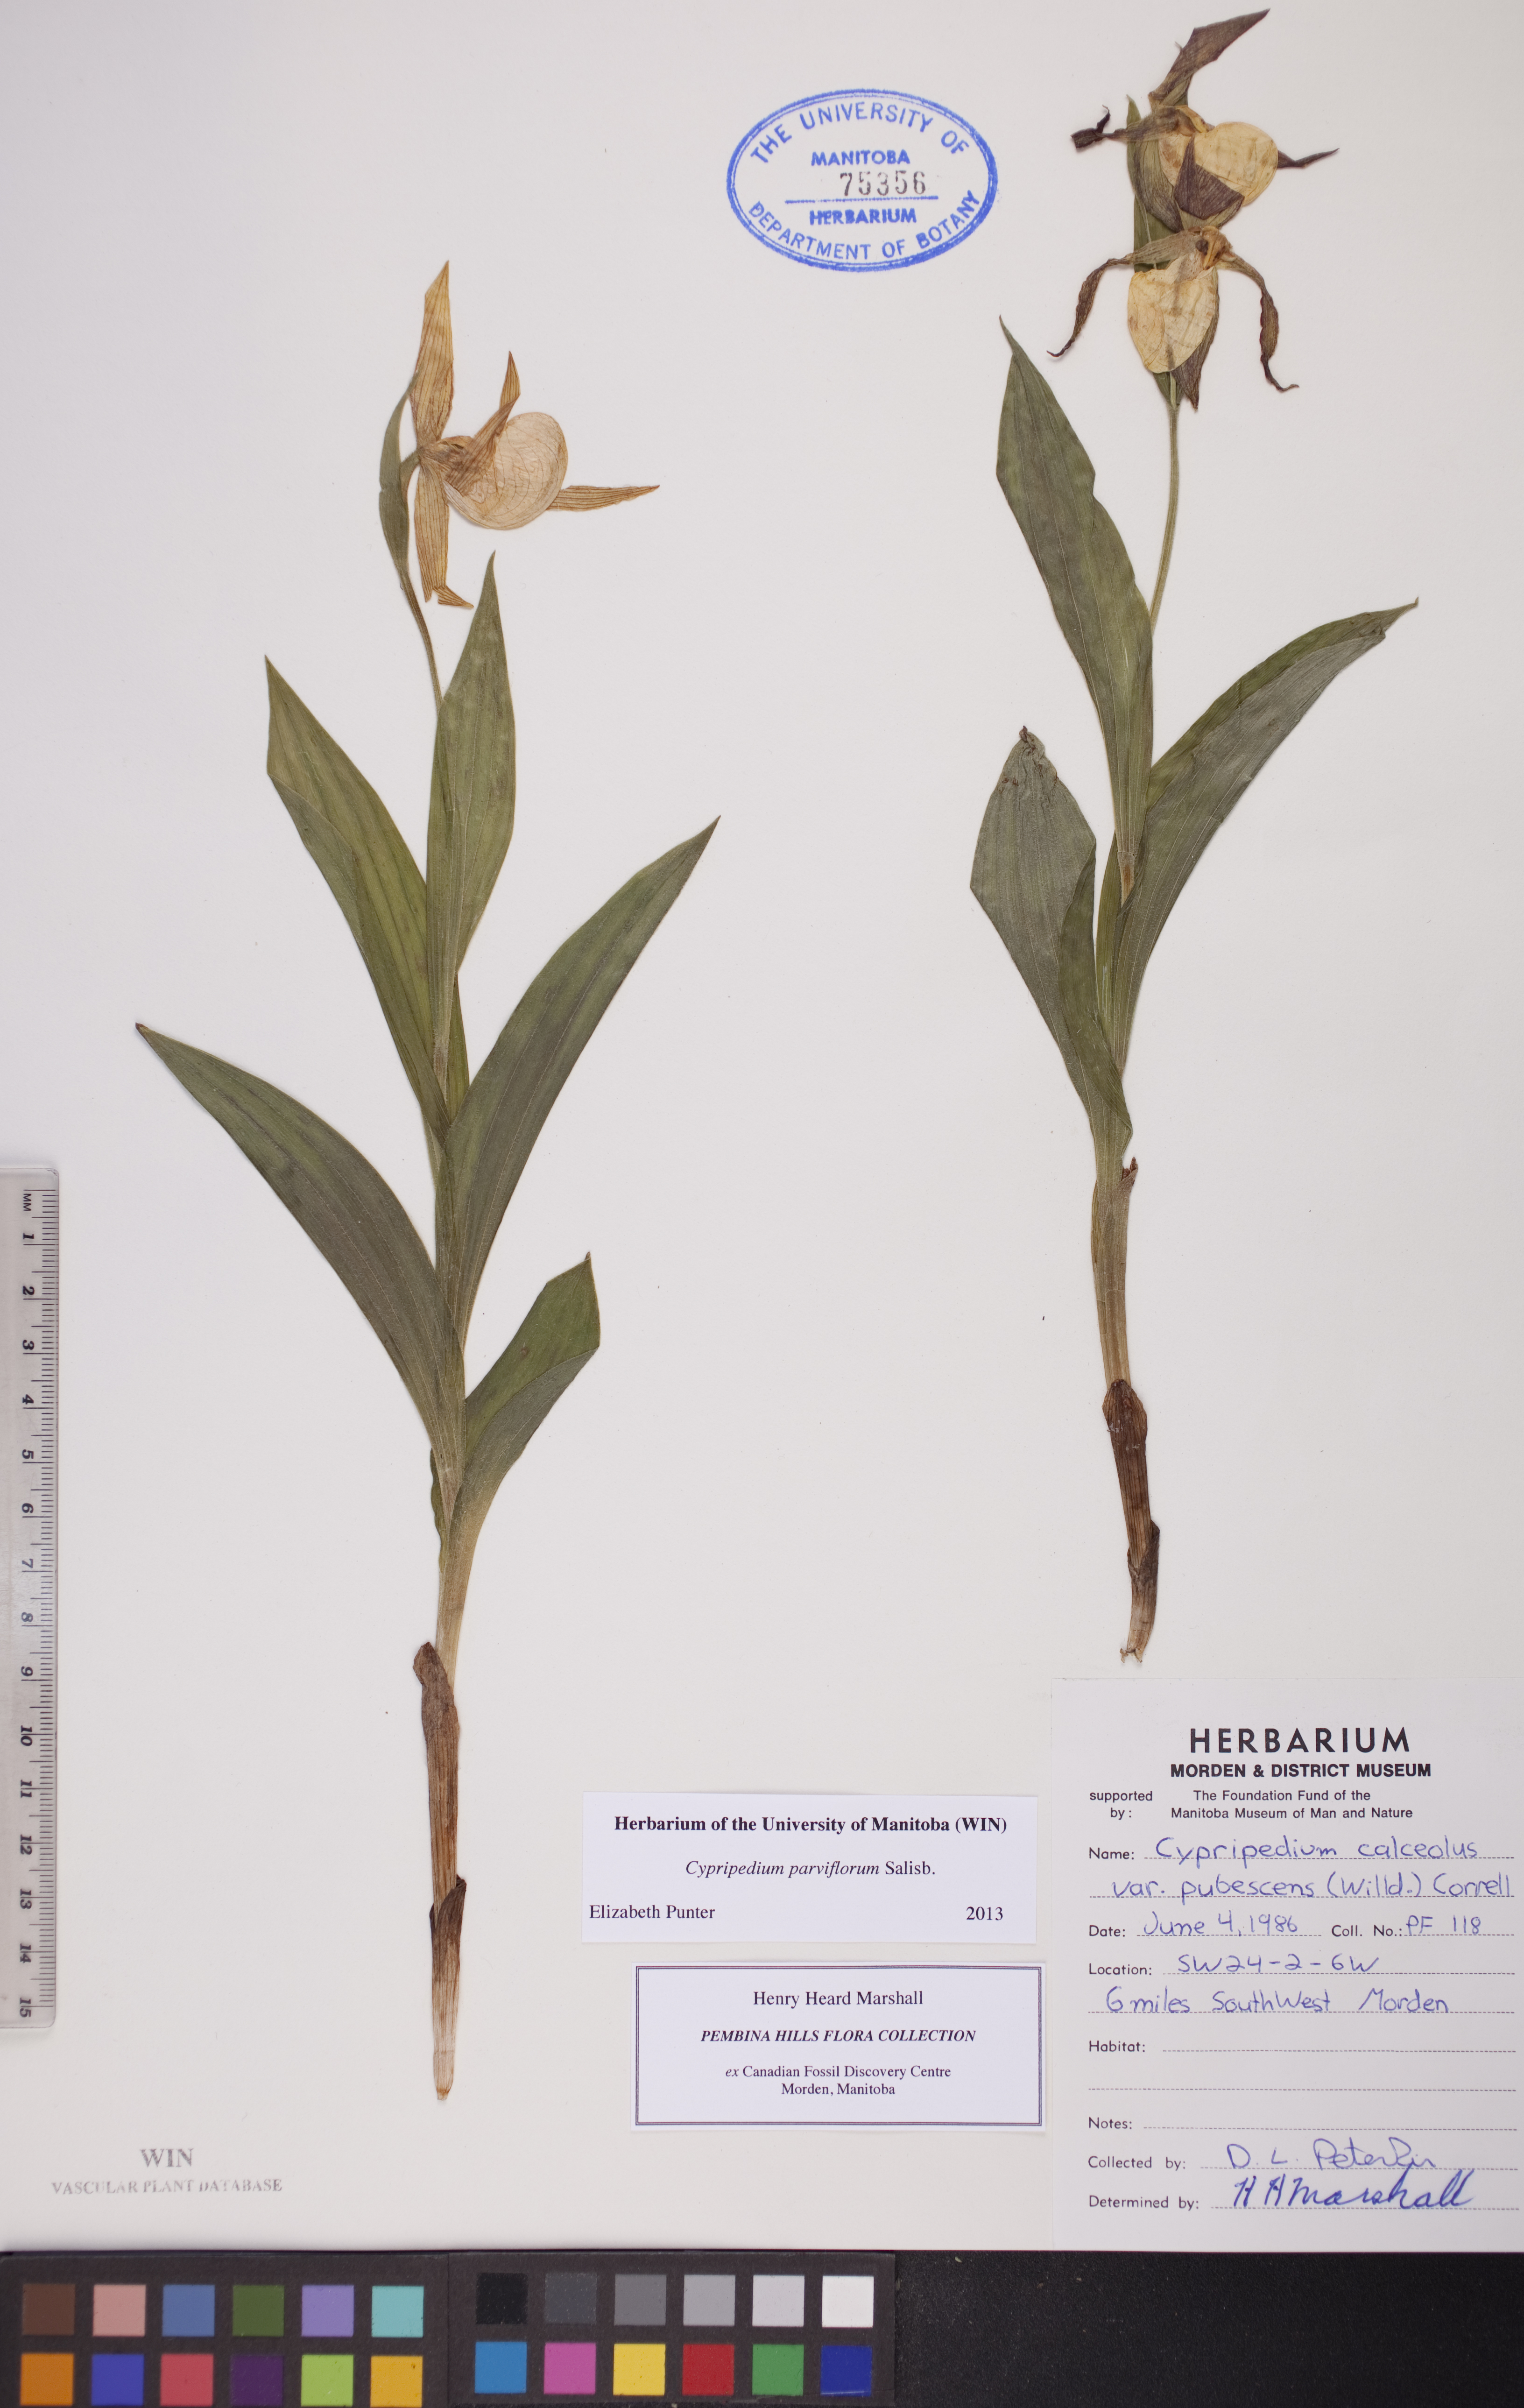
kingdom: Plantae
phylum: Tracheophyta
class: Liliopsida
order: Asparagales
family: Orchidaceae
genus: Cypripedium
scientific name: Cypripedium parviflorum
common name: American yellow lady's-slipper
